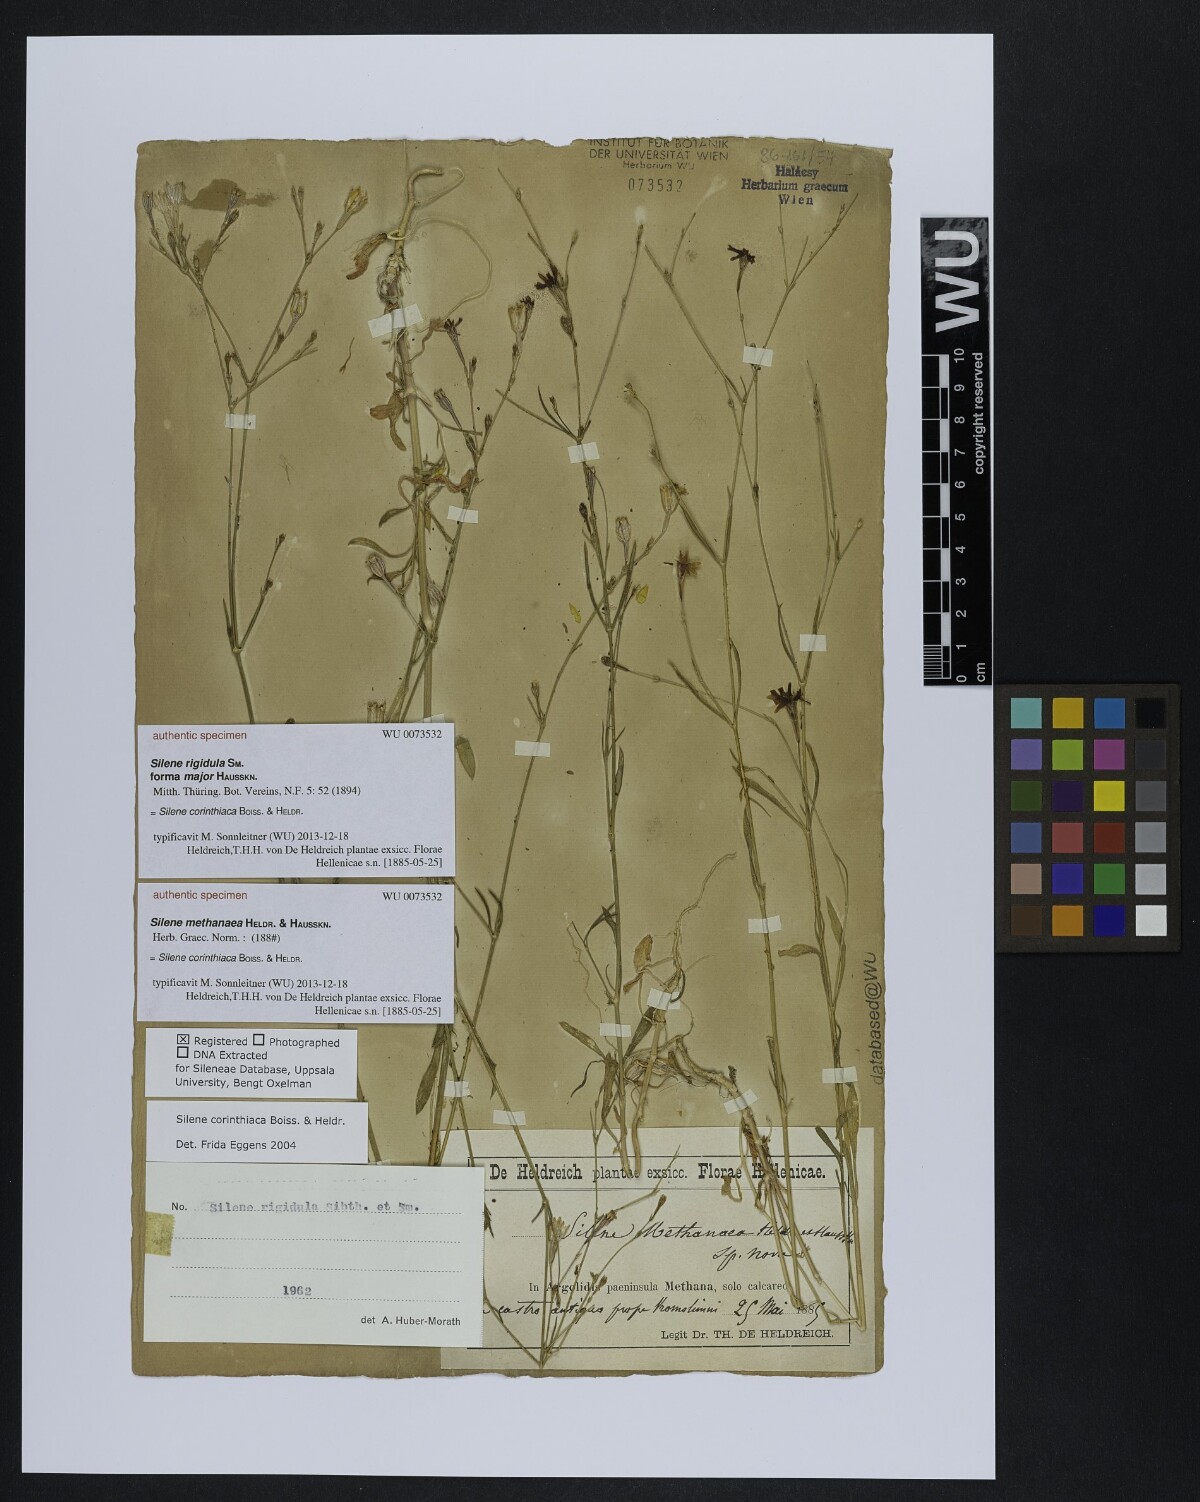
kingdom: Plantae
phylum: Tracheophyta
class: Magnoliopsida
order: Caryophyllales
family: Caryophyllaceae
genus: Silene
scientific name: Silene
